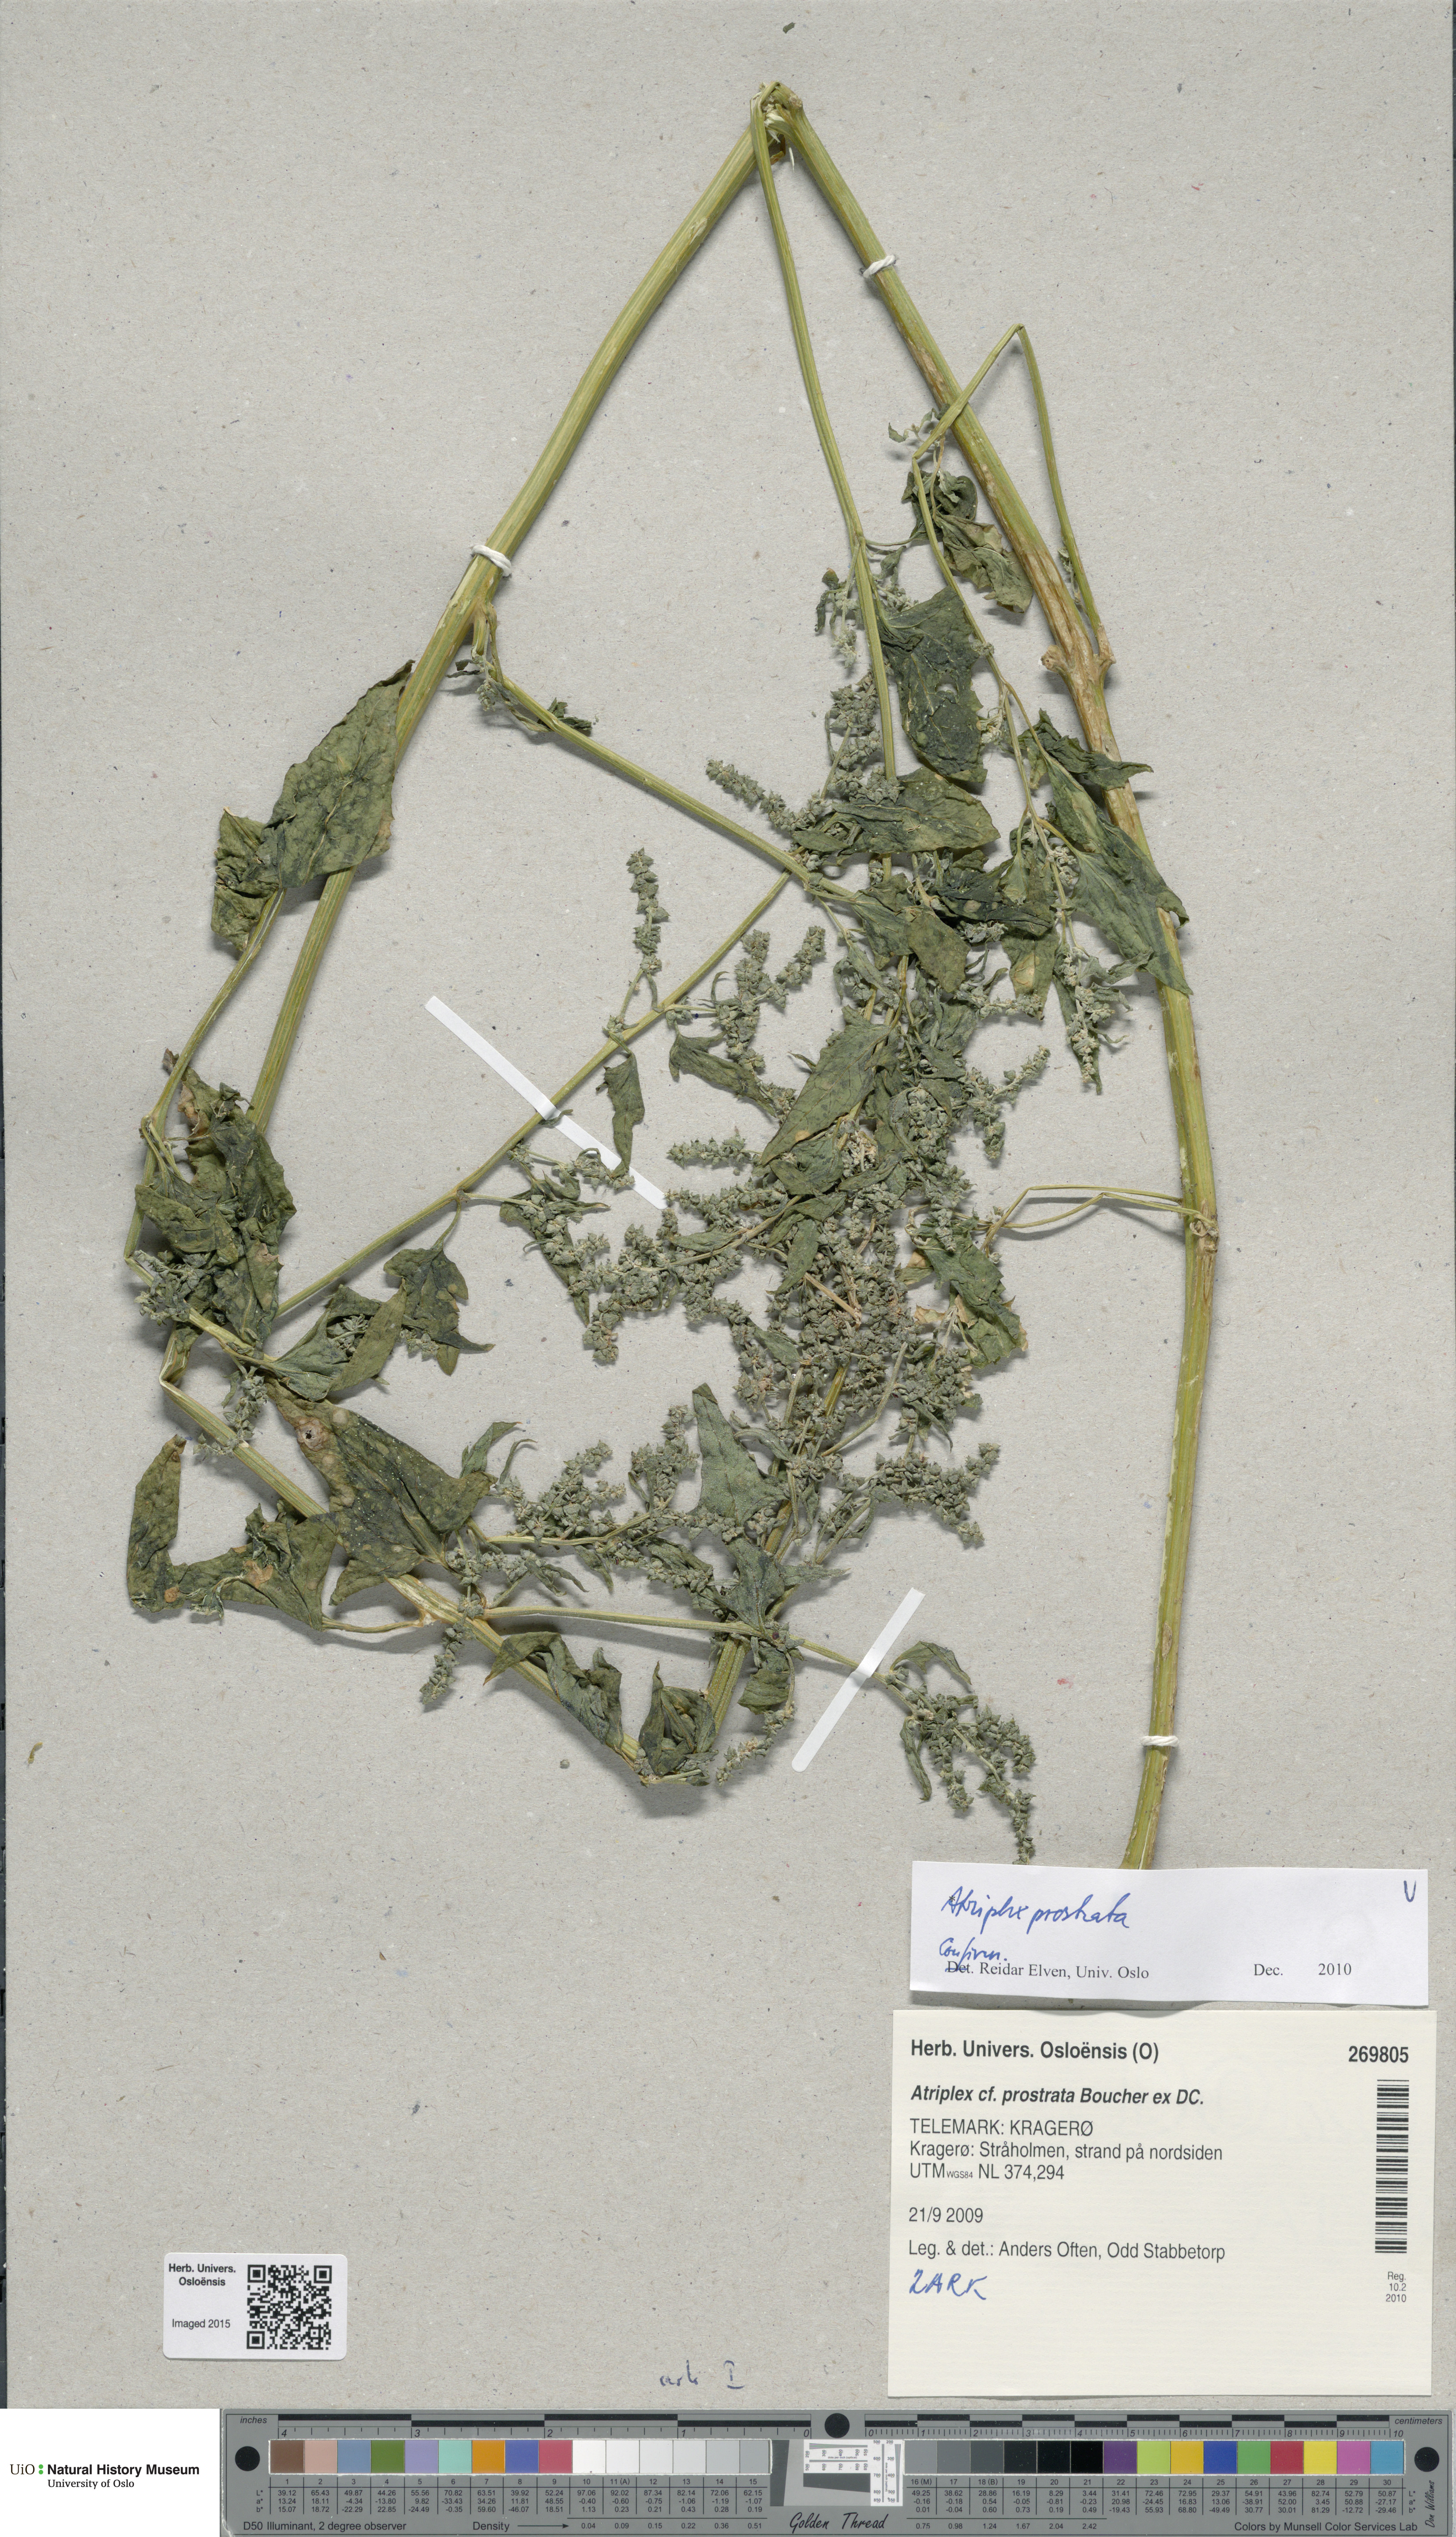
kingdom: Plantae
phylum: Tracheophyta
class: Magnoliopsida
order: Caryophyllales
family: Amaranthaceae
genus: Atriplex
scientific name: Atriplex prostrata
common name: Spear-leaved orache
